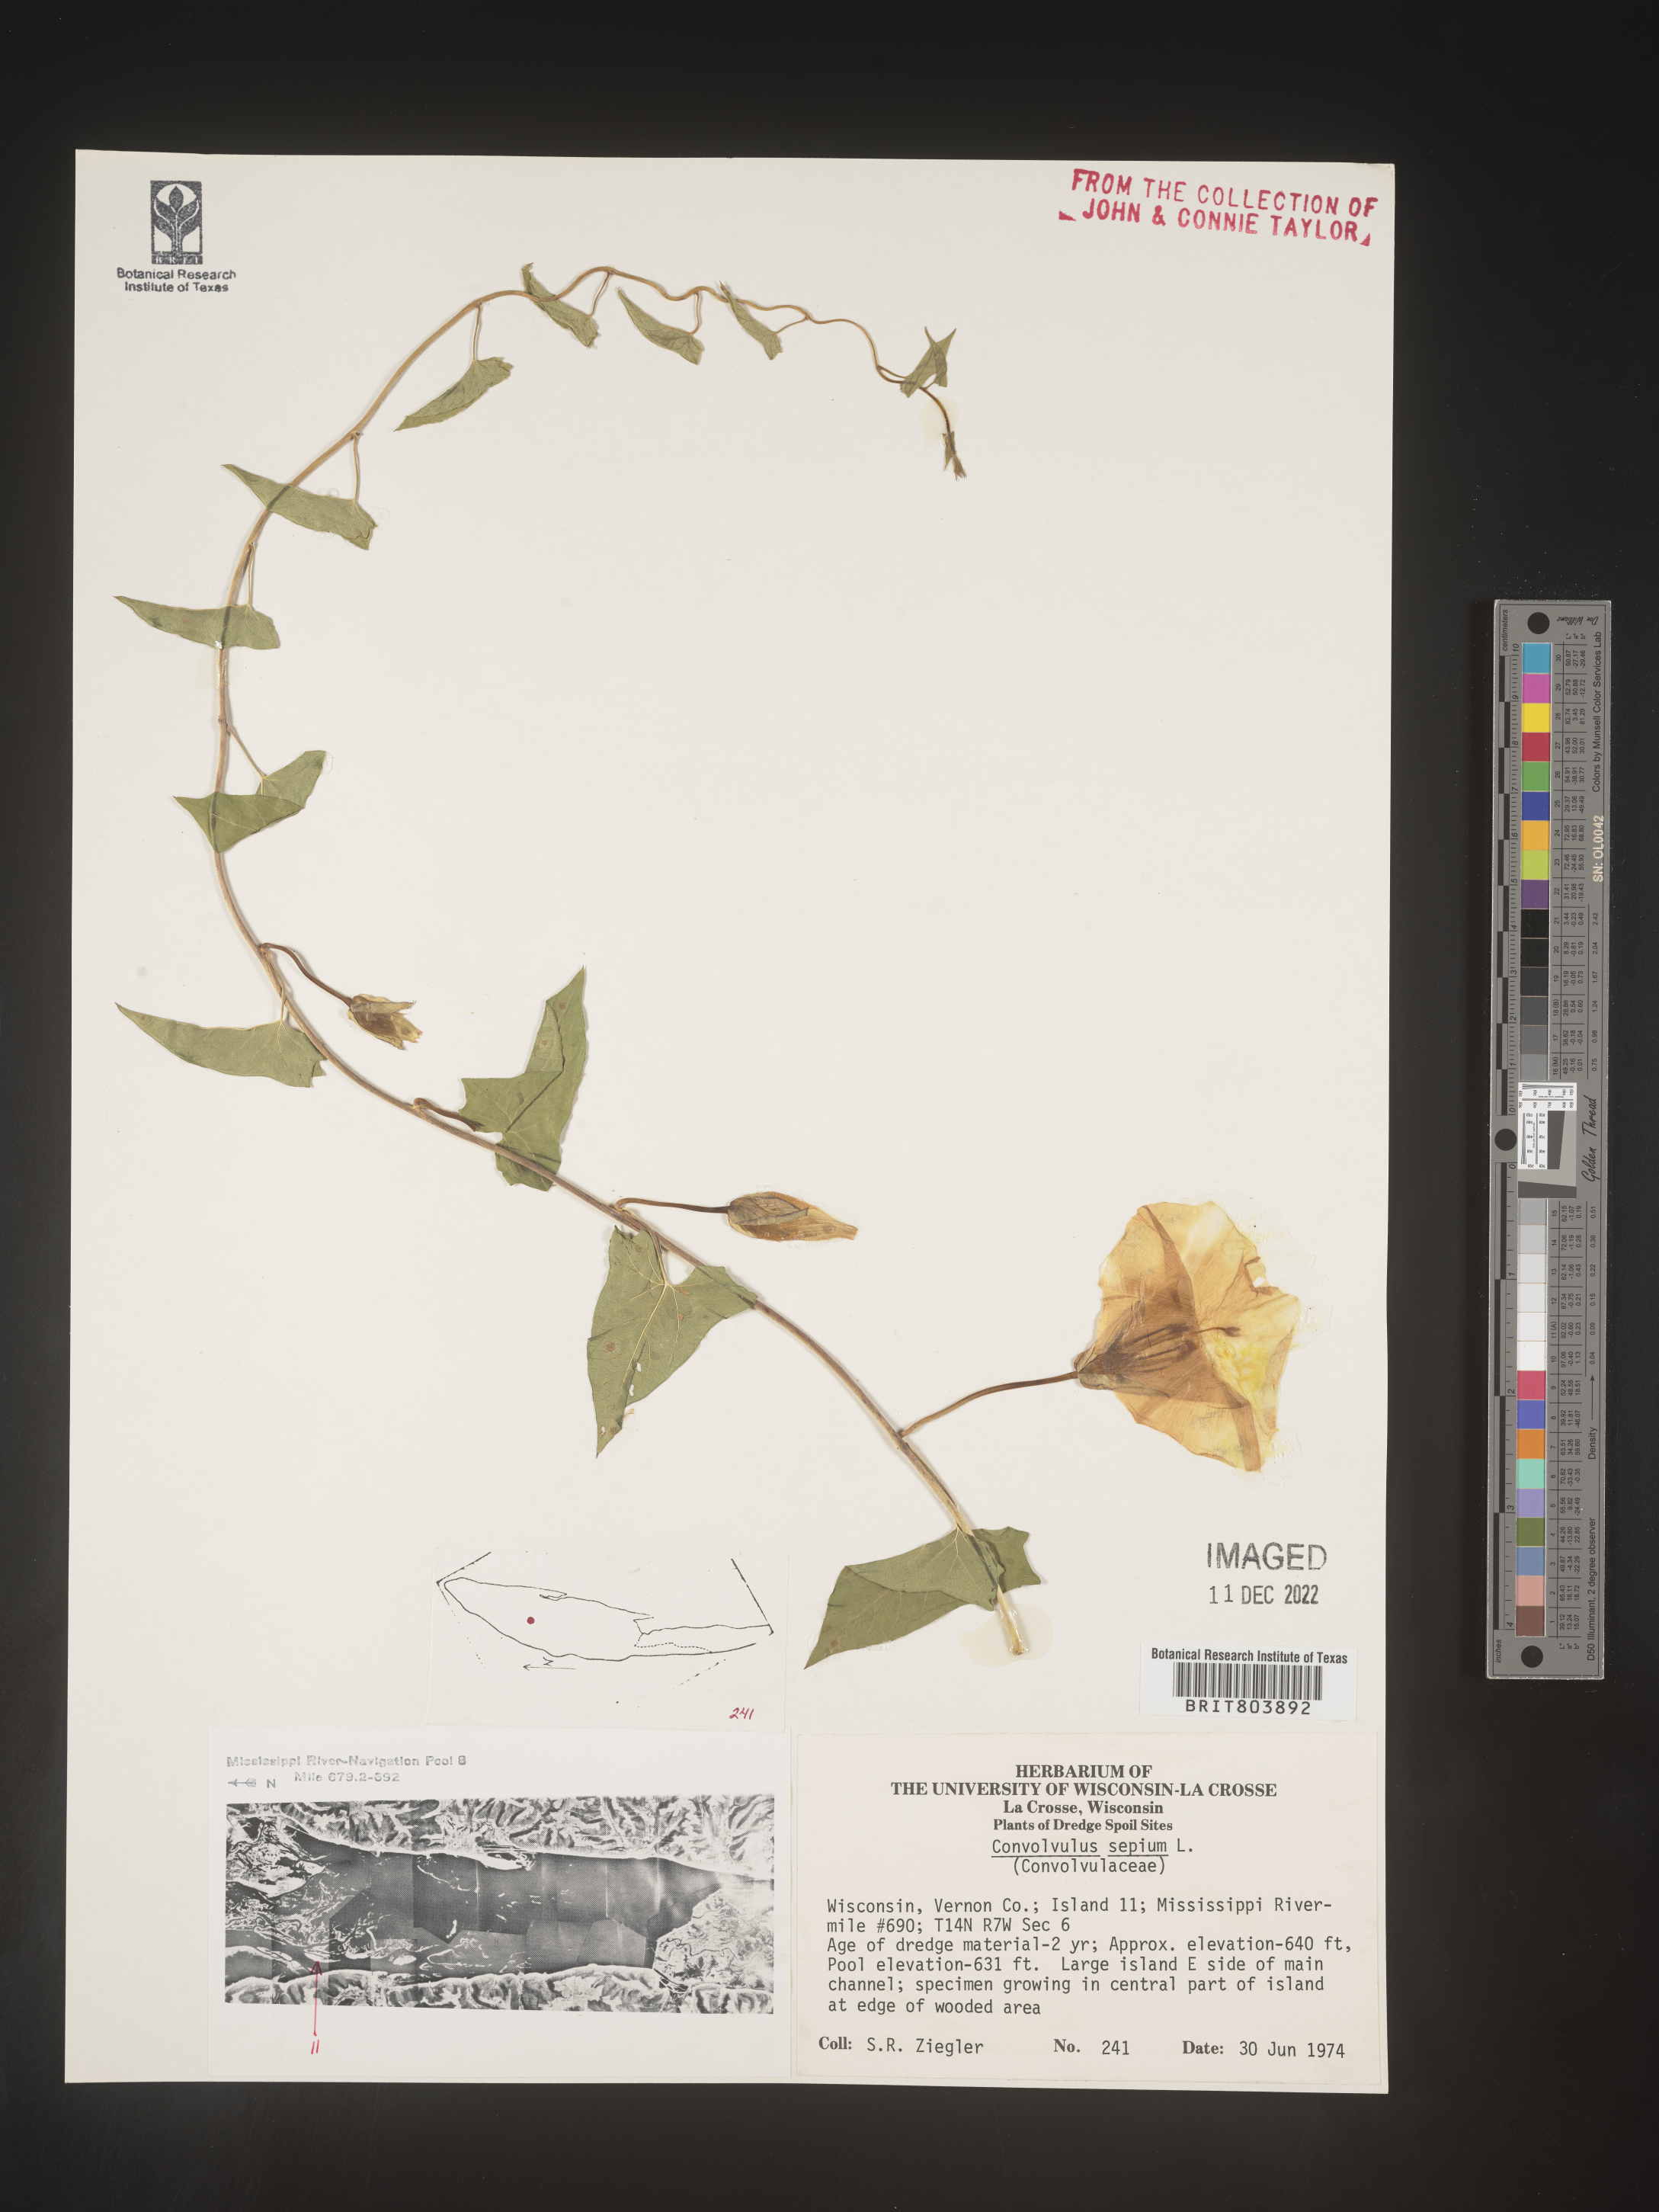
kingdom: Plantae
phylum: Tracheophyta
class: Magnoliopsida
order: Solanales
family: Convolvulaceae
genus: Calystegia
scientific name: Calystegia sepium
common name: Hedge bindweed
